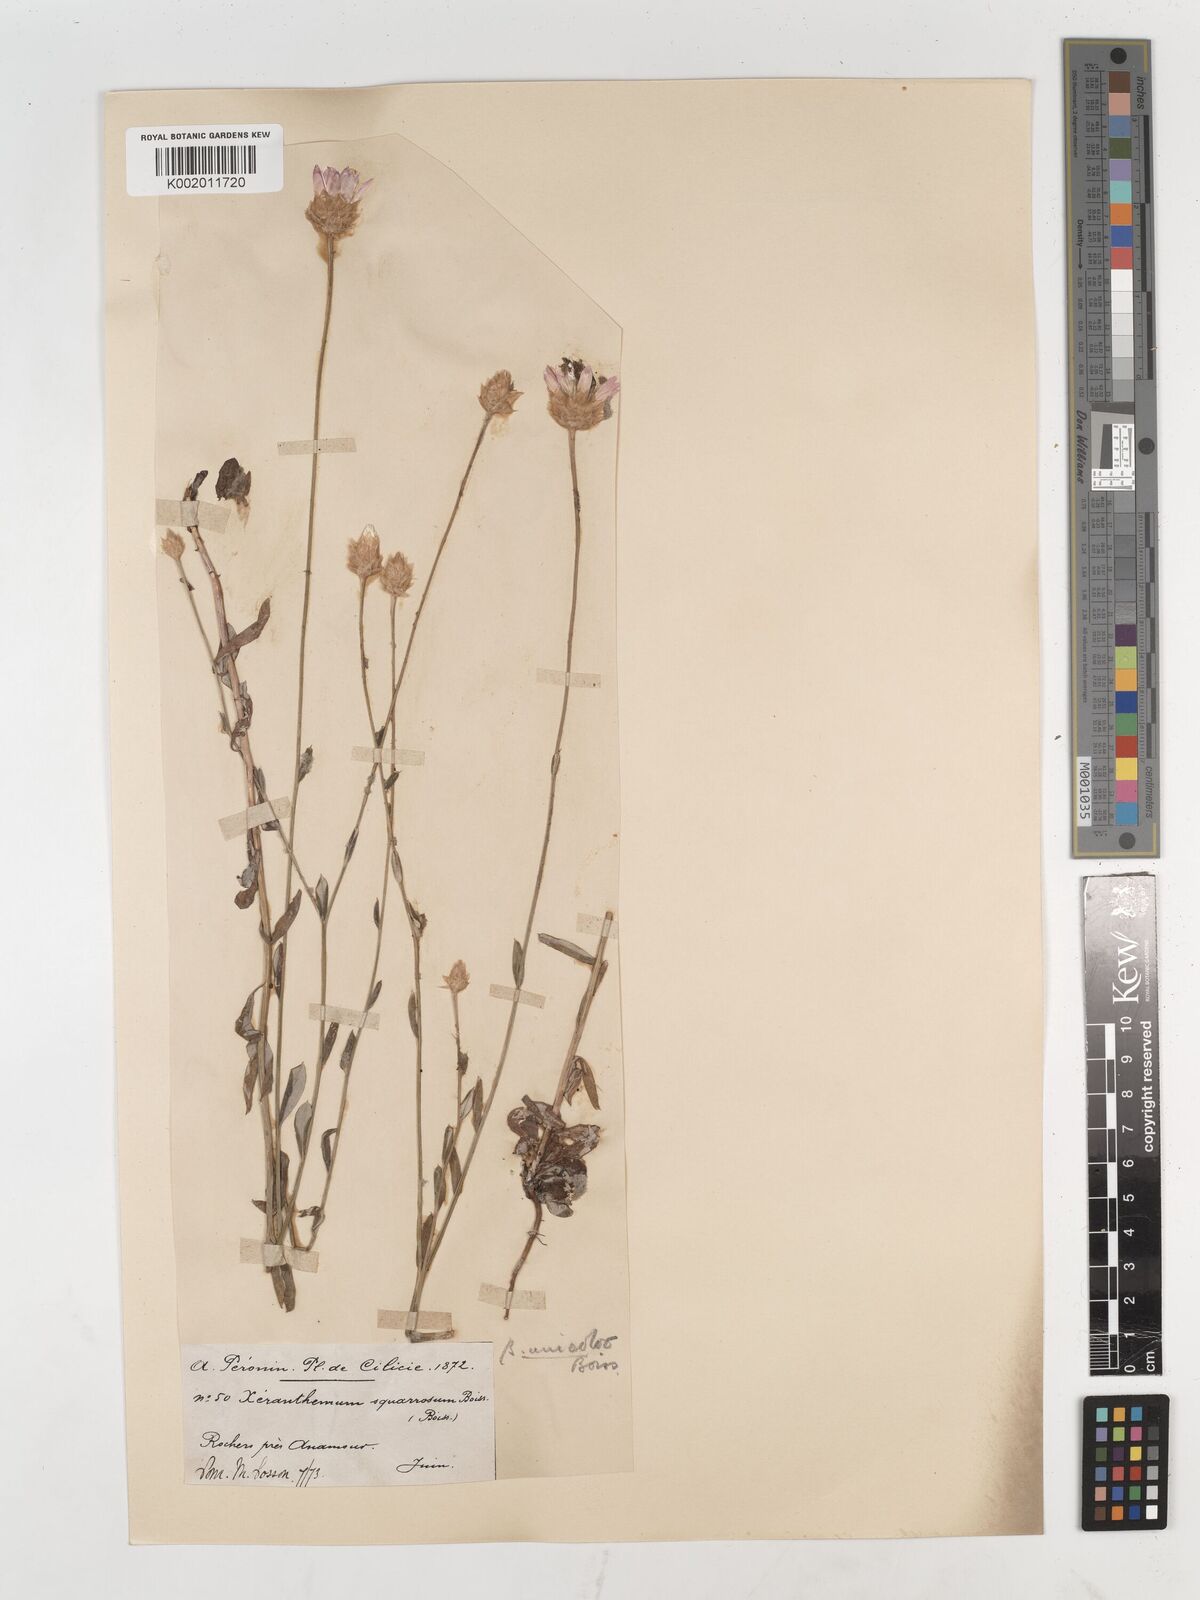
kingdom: Plantae
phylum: Tracheophyta
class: Magnoliopsida
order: Asterales
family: Asteraceae
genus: Xeranthemum
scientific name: Xeranthemum squarrosum
